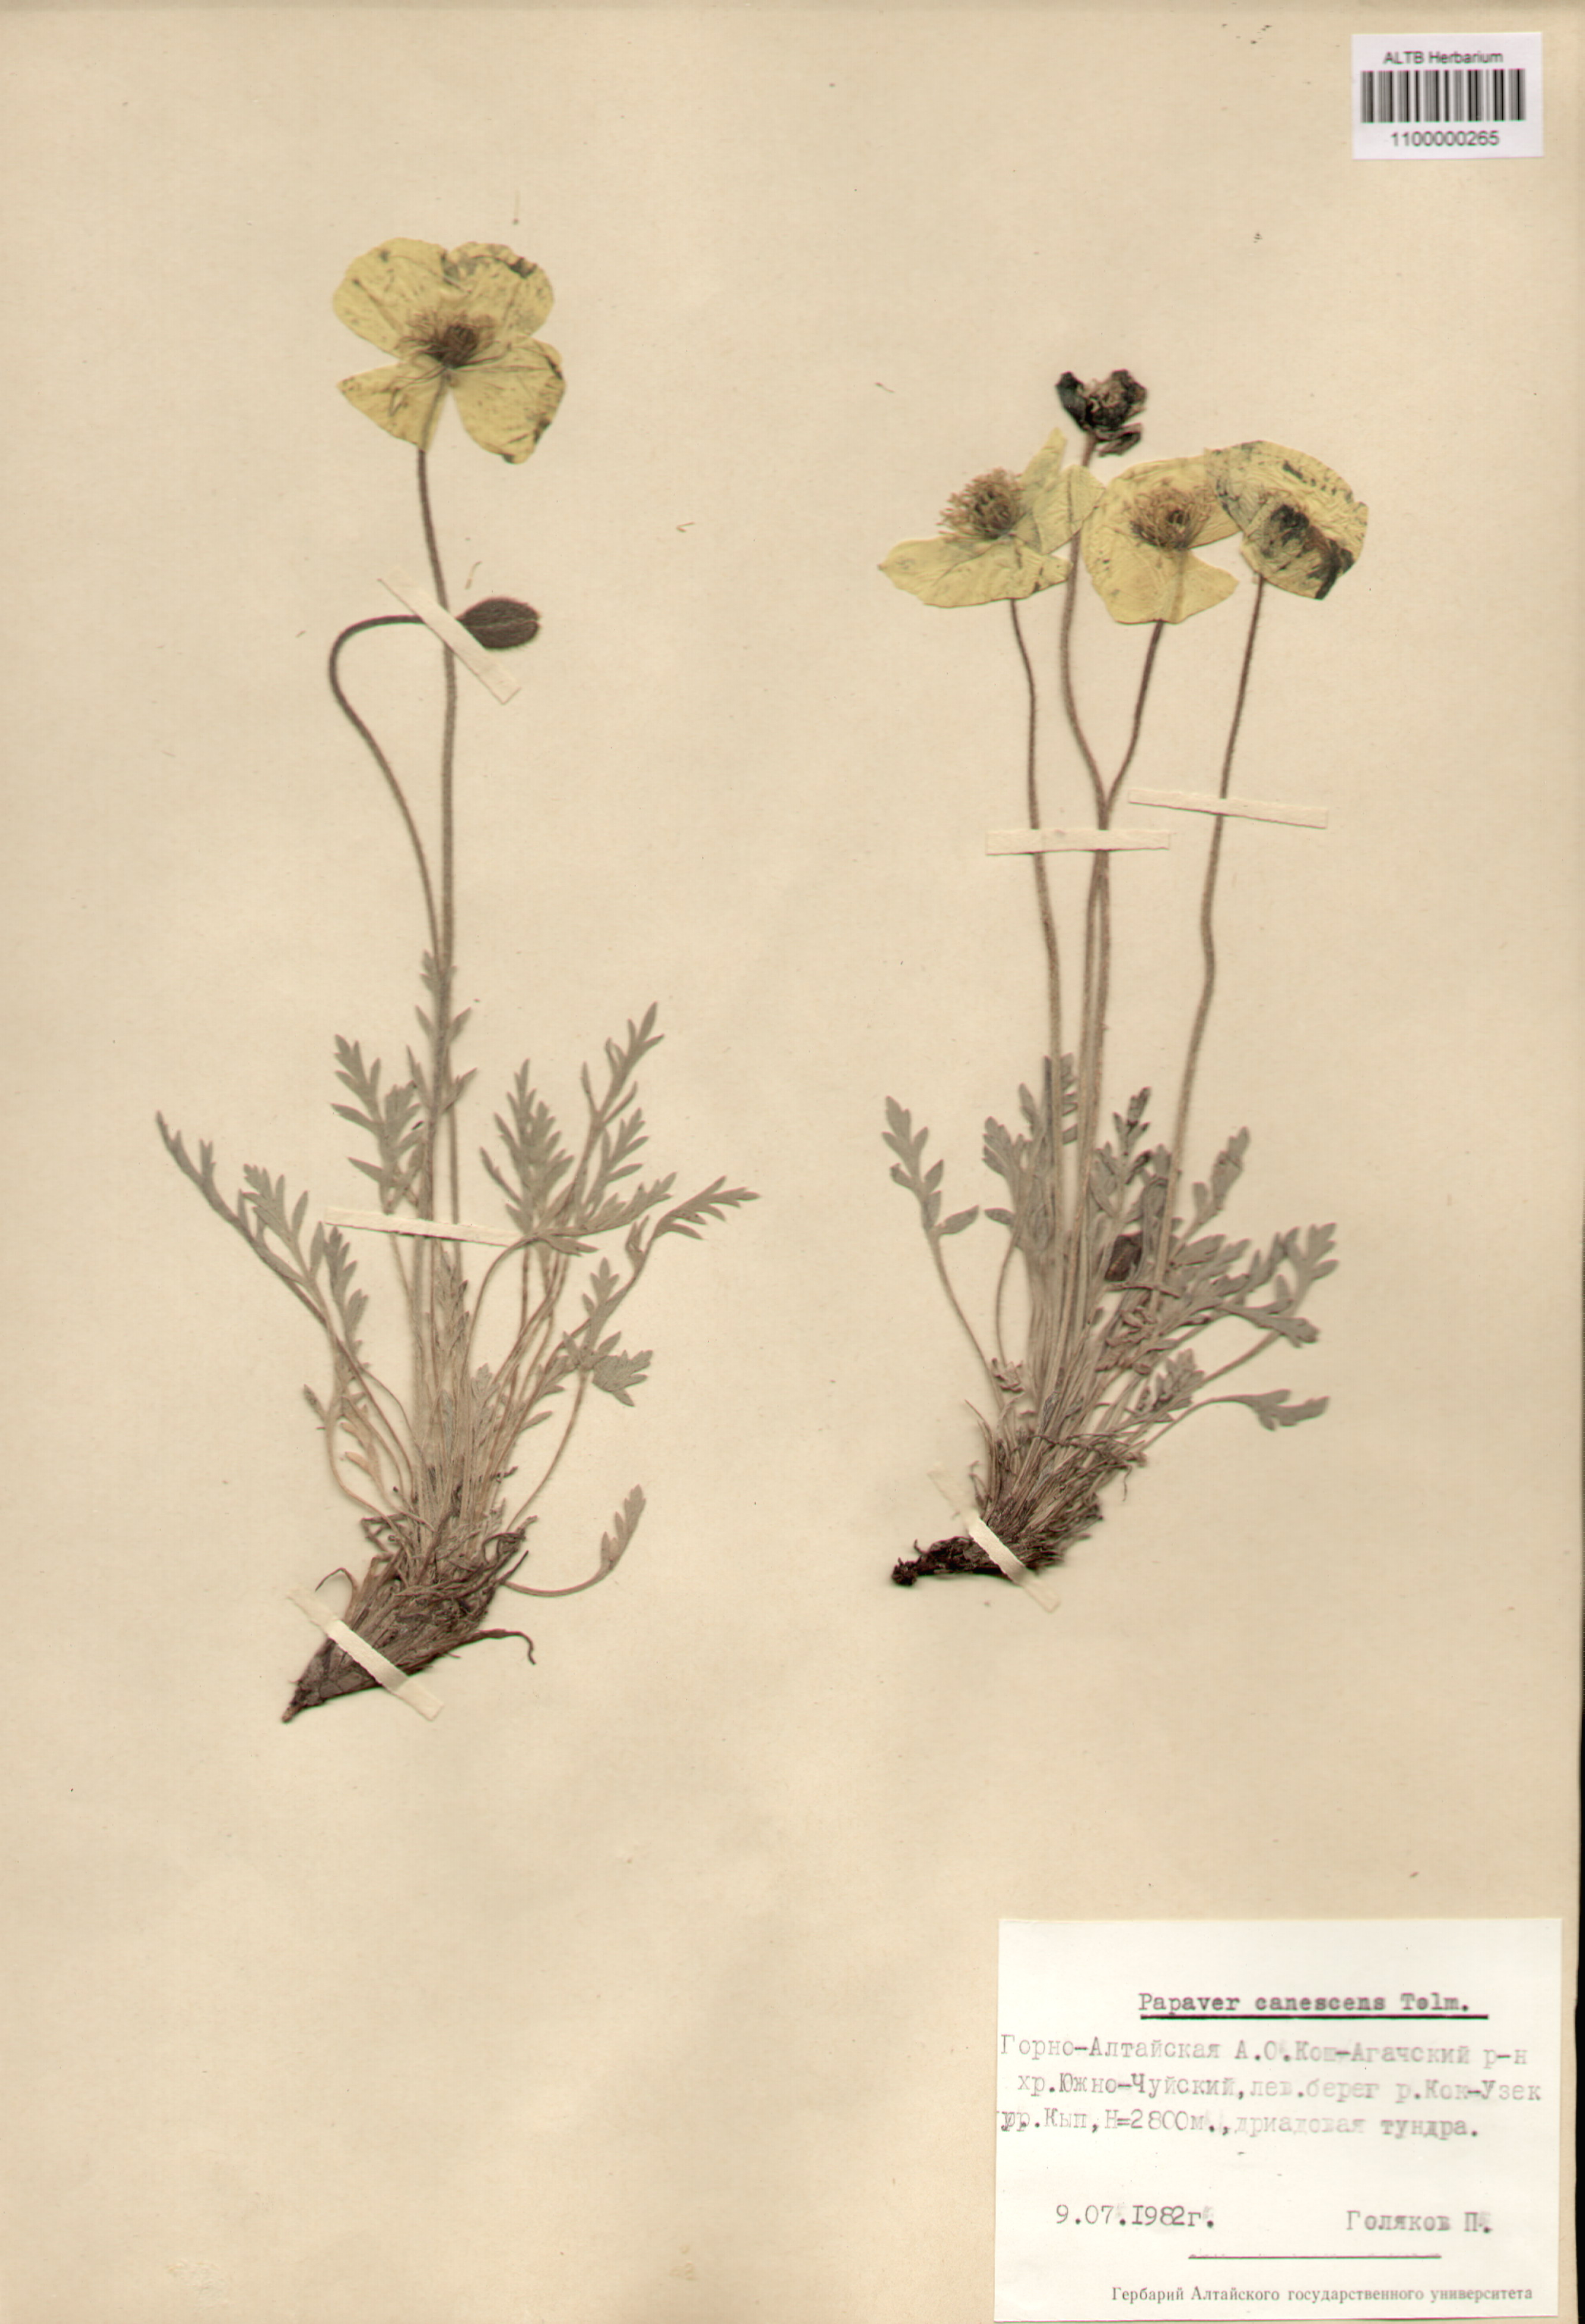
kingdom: Plantae
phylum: Tracheophyta
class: Magnoliopsida
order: Ranunculales
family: Papaveraceae
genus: Papaver
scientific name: Papaver canescens
